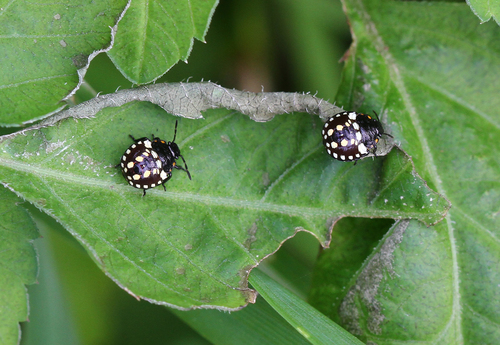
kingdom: Animalia
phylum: Arthropoda
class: Insecta
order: Hemiptera
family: Pentatomidae
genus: Nezara
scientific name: Nezara viridula
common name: Southern green stink bug
